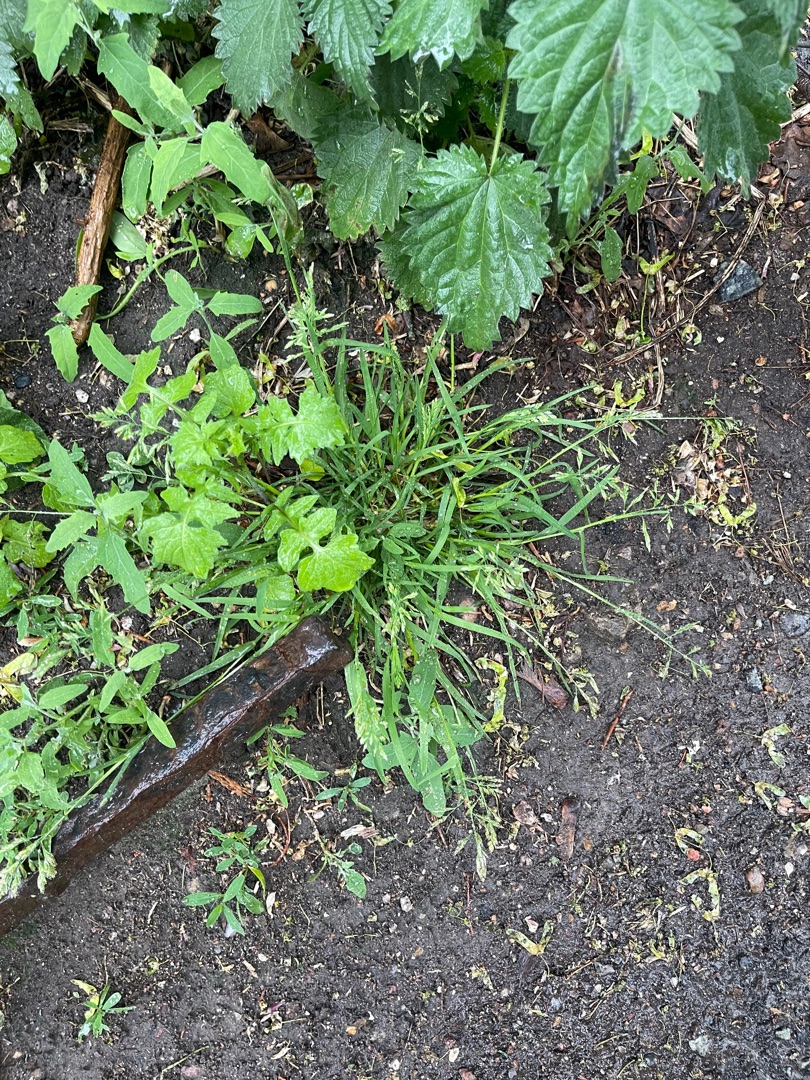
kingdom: Plantae
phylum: Tracheophyta
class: Liliopsida
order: Poales
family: Poaceae
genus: Poa
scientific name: Poa annua
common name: Enårig rapgræs
